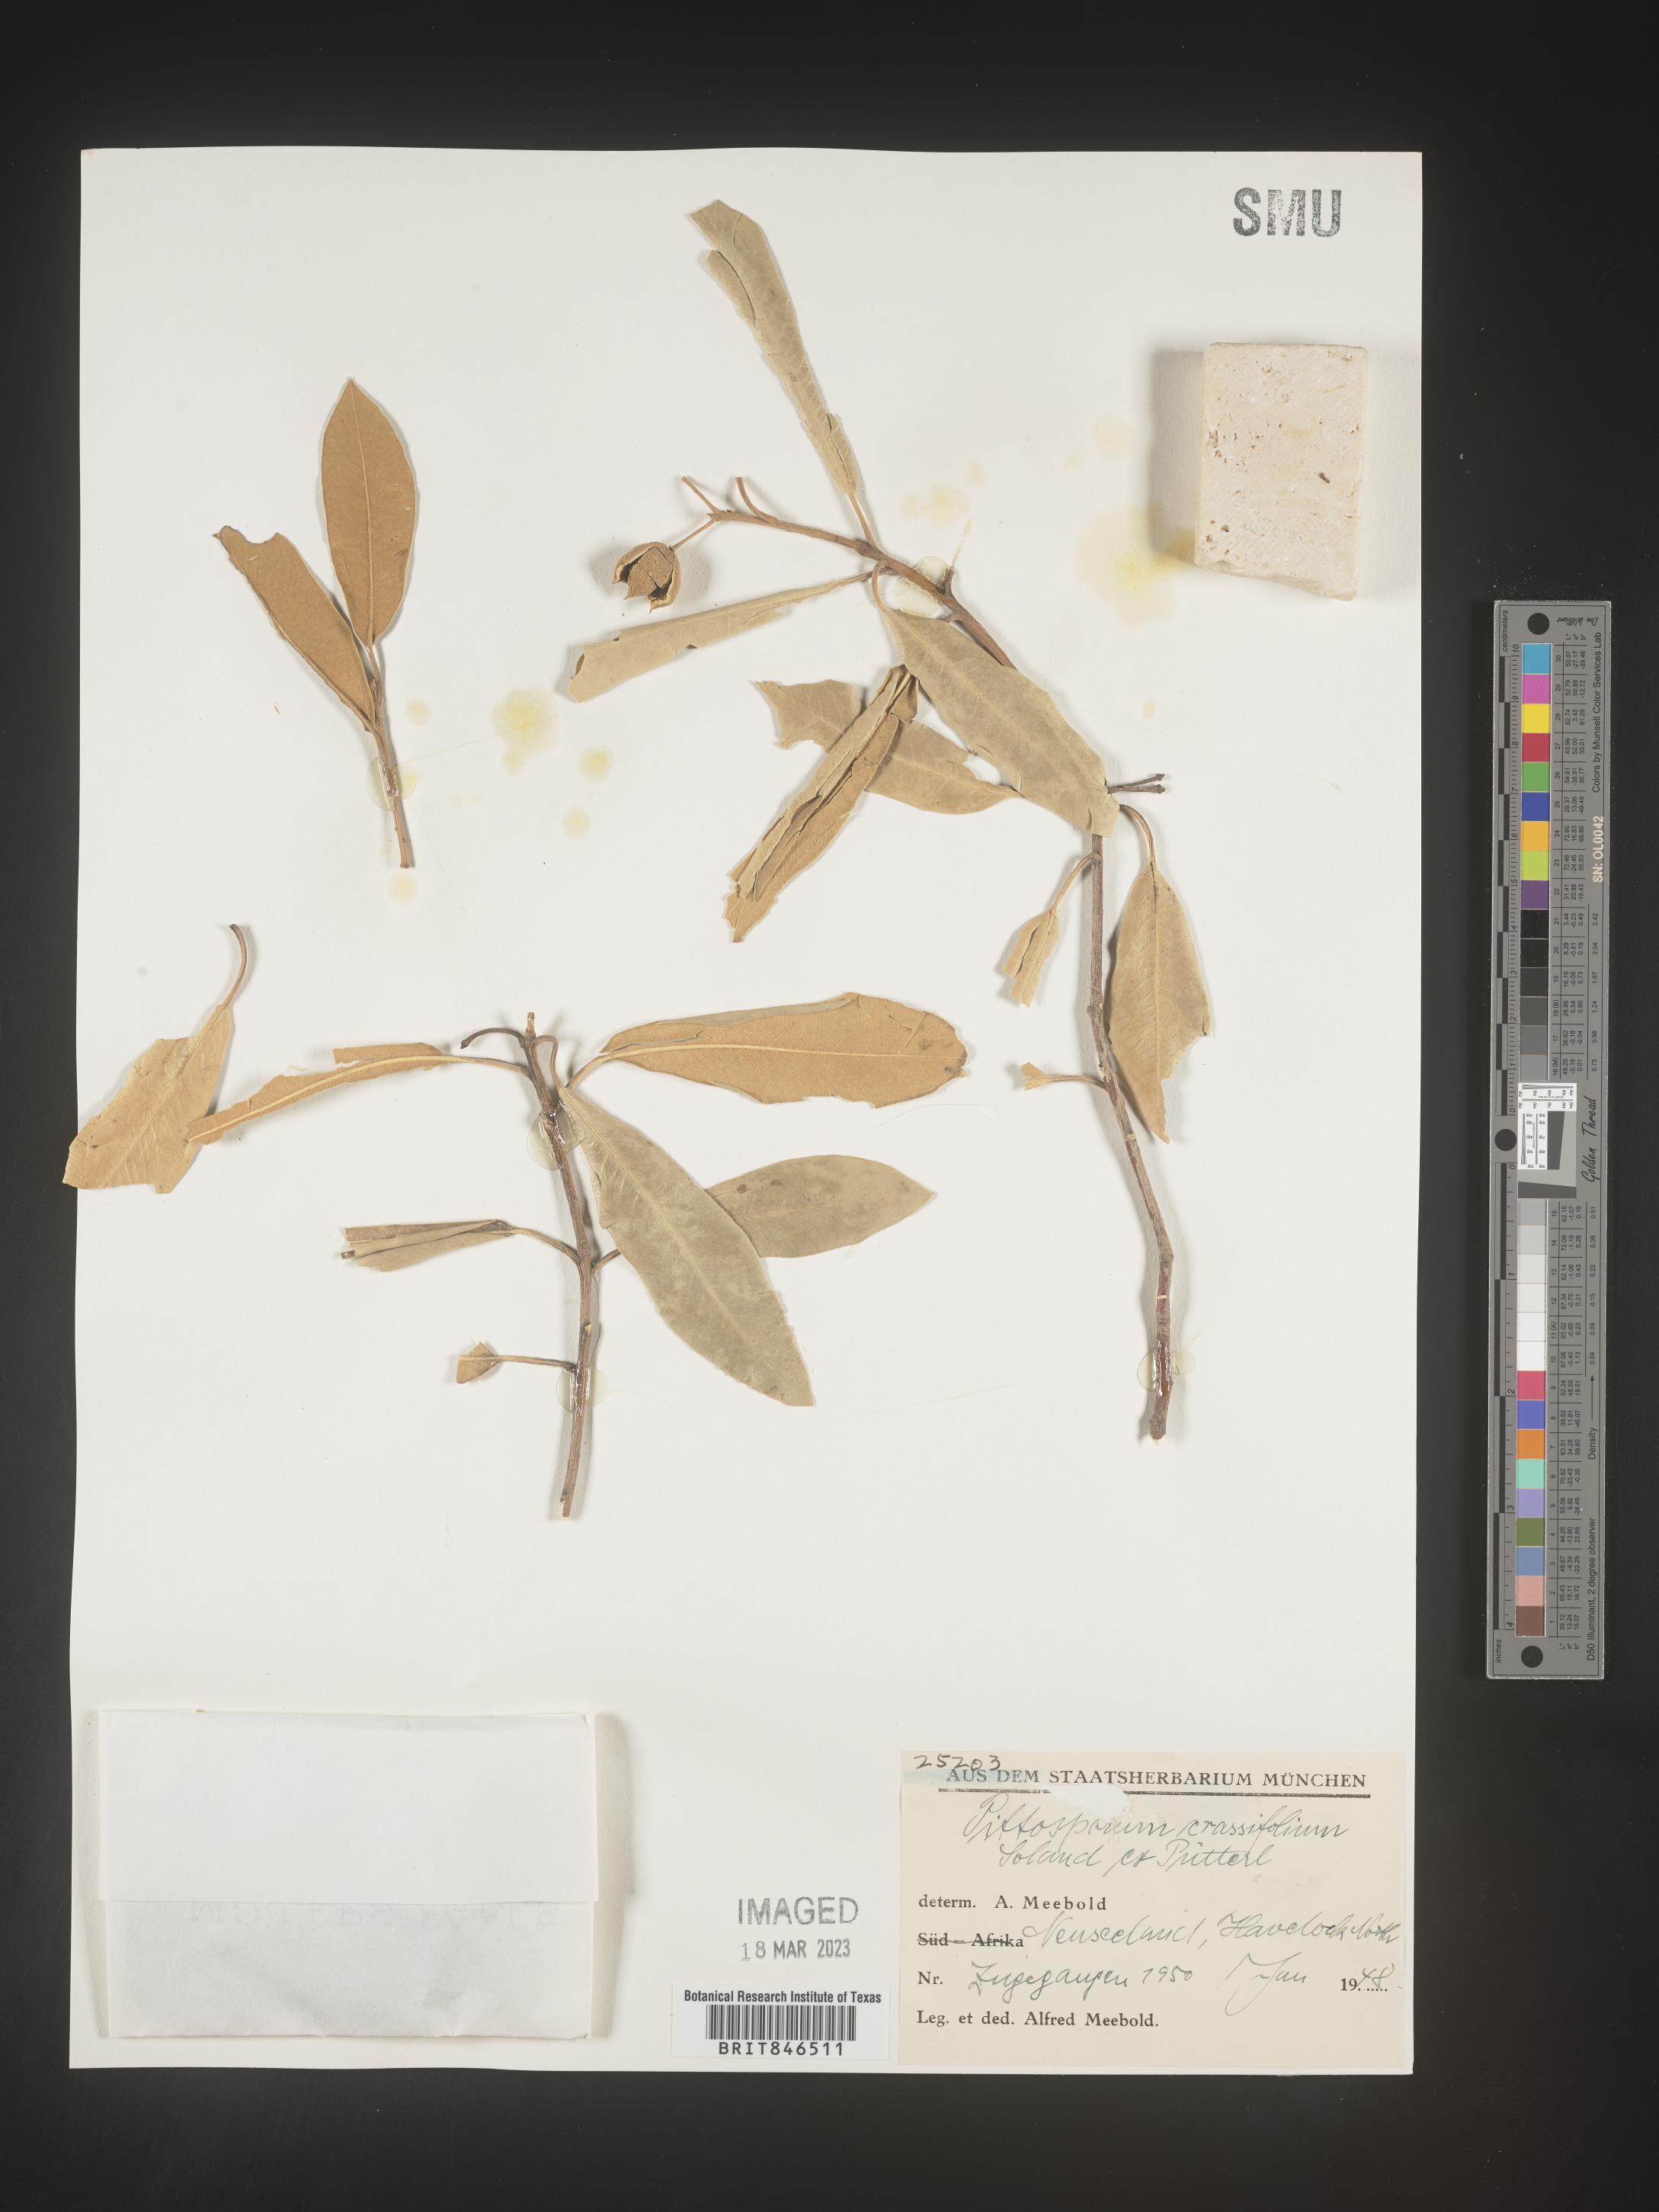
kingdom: Plantae
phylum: Tracheophyta
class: Magnoliopsida
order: Apiales
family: Pittosporaceae
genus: Pittosporum
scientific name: Pittosporum
